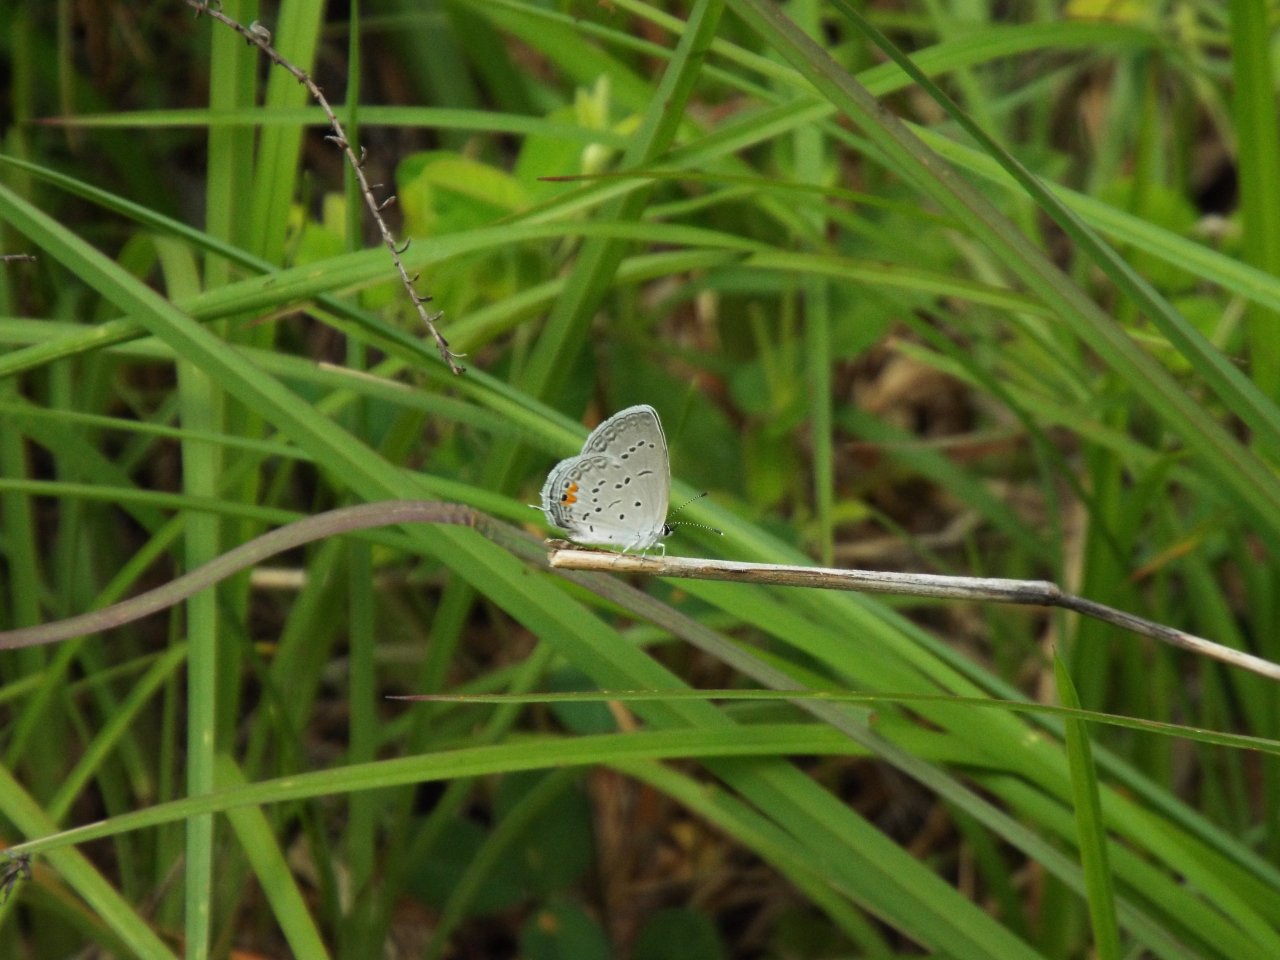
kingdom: Animalia
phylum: Arthropoda
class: Insecta
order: Lepidoptera
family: Lycaenidae
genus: Elkalyce
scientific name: Elkalyce comyntas
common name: Eastern Tailed-Blue
